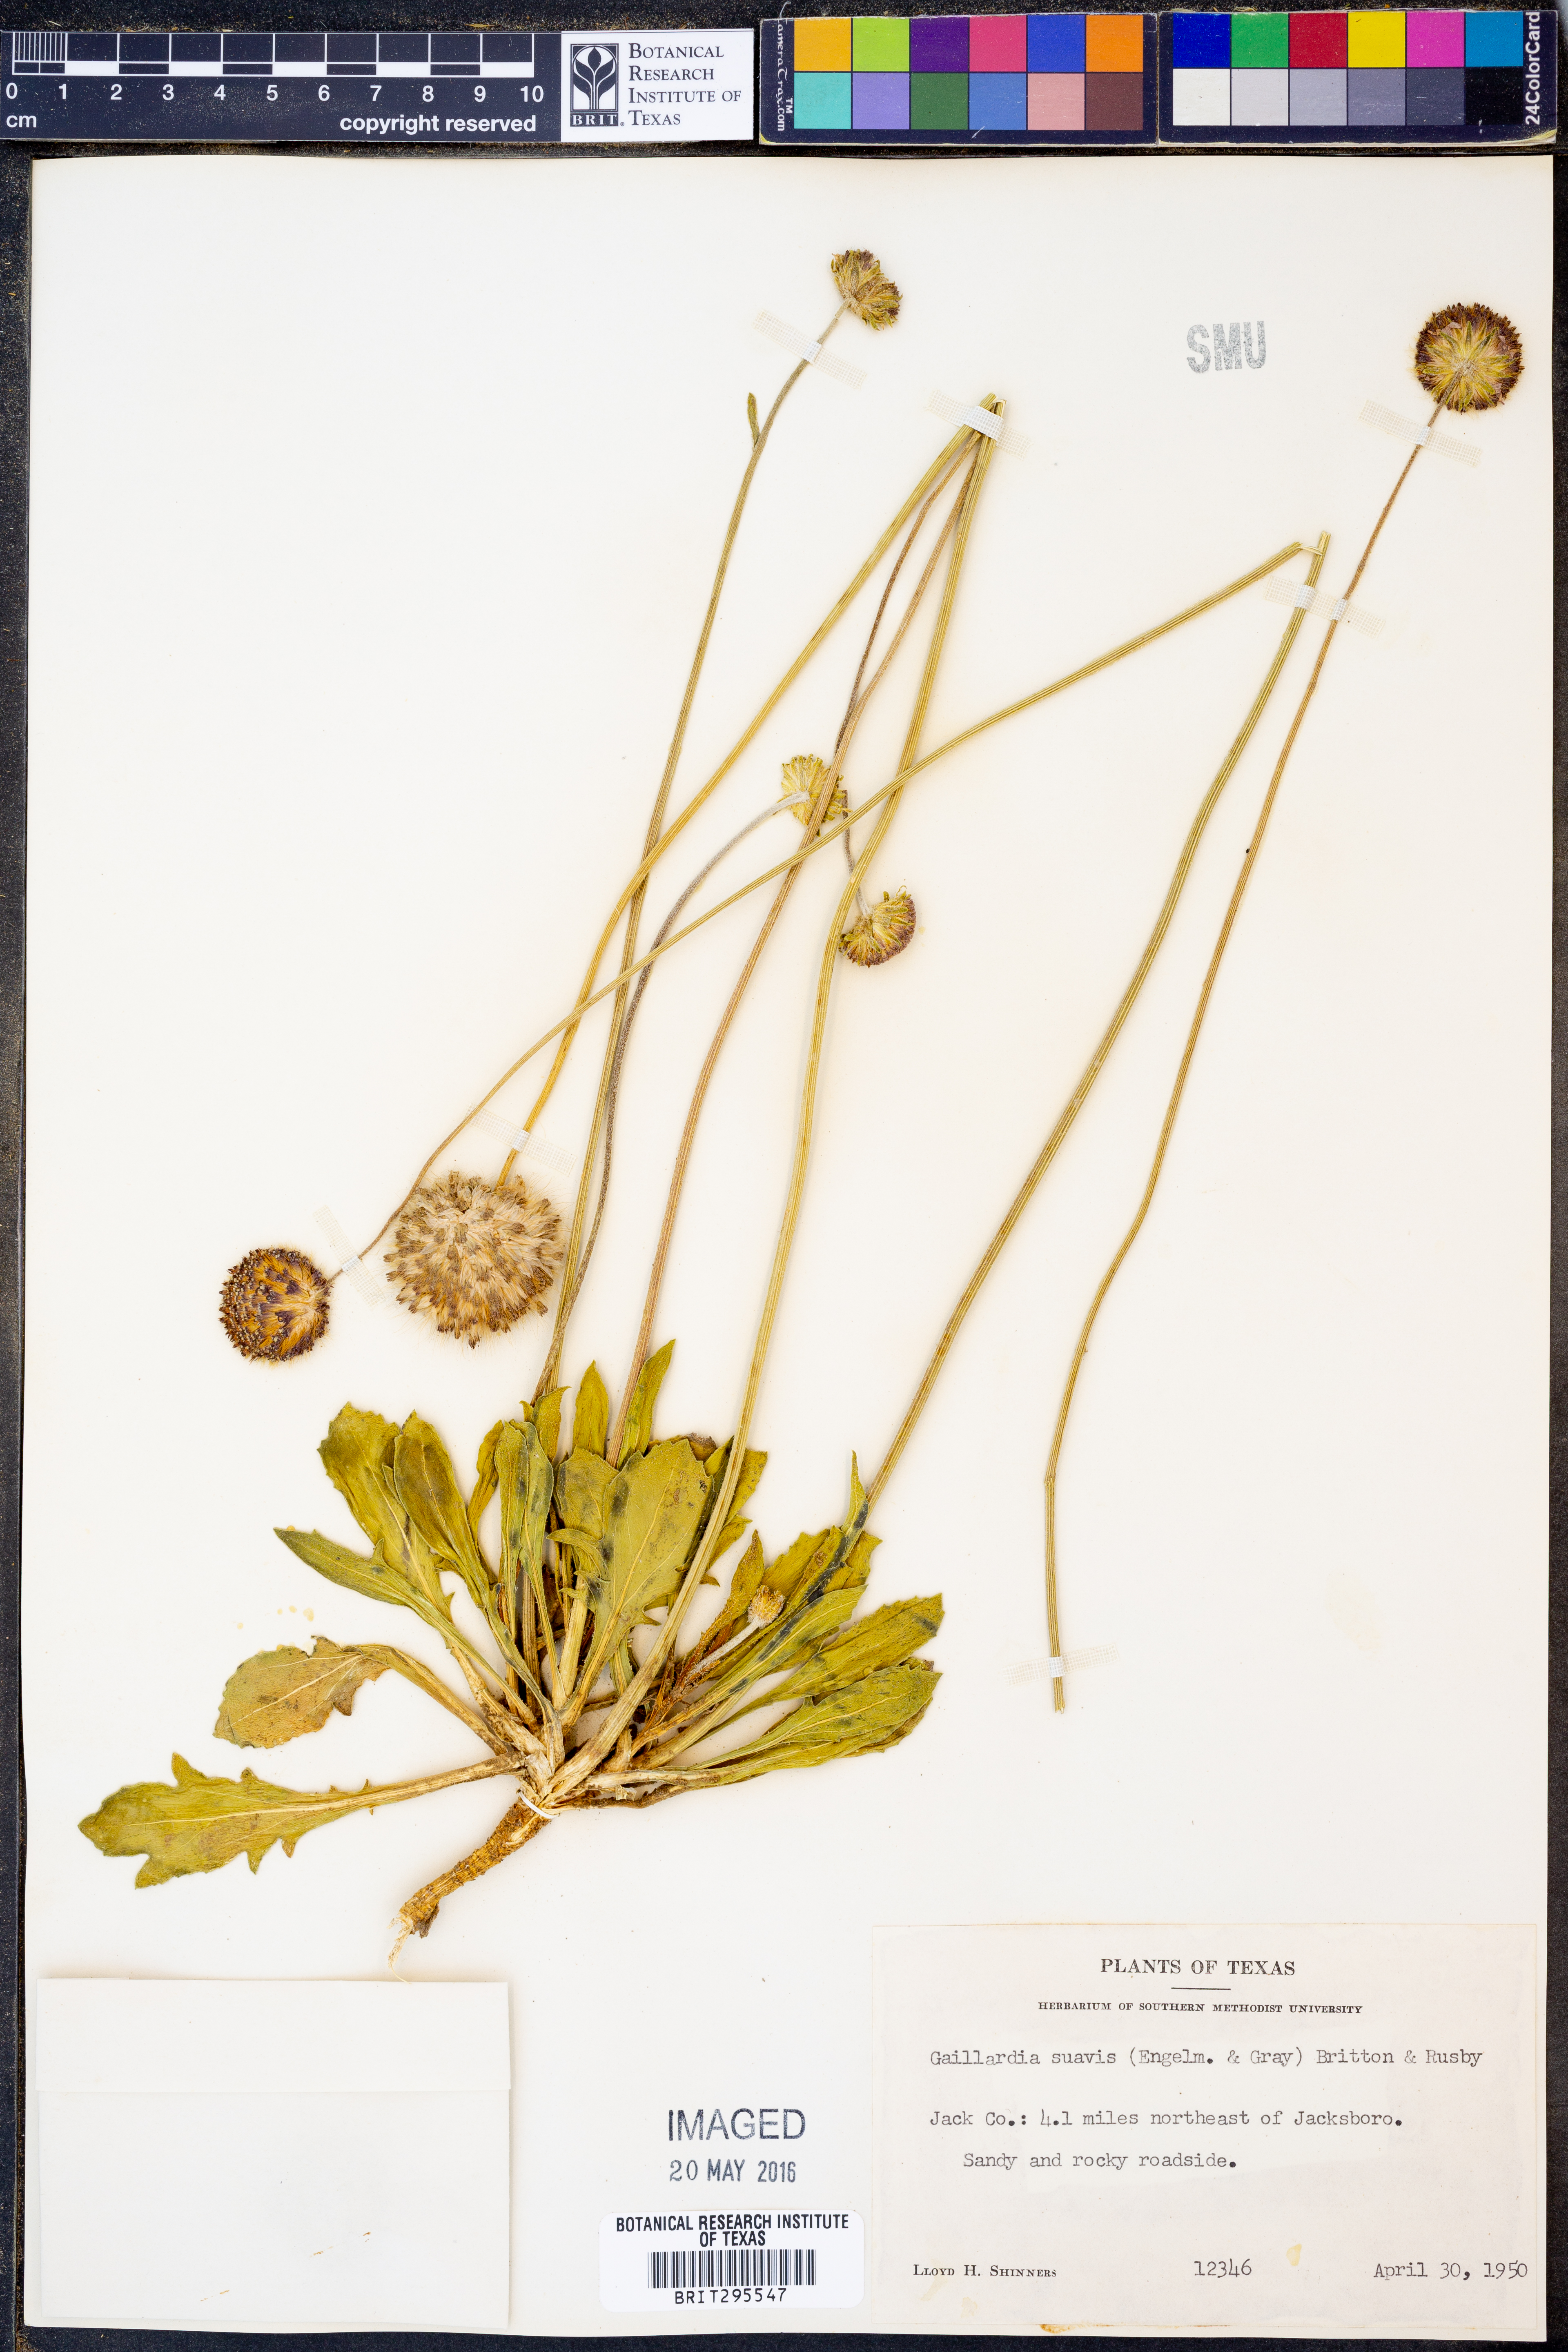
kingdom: Plantae
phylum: Tracheophyta
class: Magnoliopsida
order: Asterales
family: Asteraceae
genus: Gaillardia
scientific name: Gaillardia suavis
